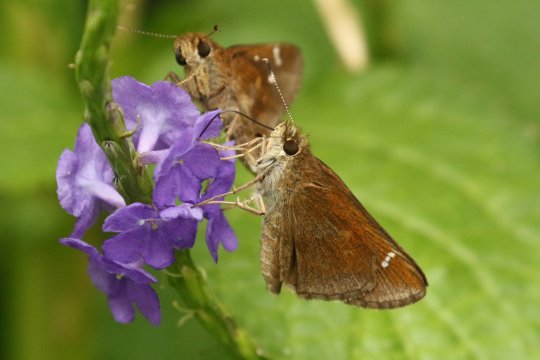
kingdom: Animalia
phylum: Arthropoda
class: Insecta
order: Lepidoptera
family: Hesperiidae
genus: Lerema
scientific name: Lerema accius
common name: Clouded Skipper
